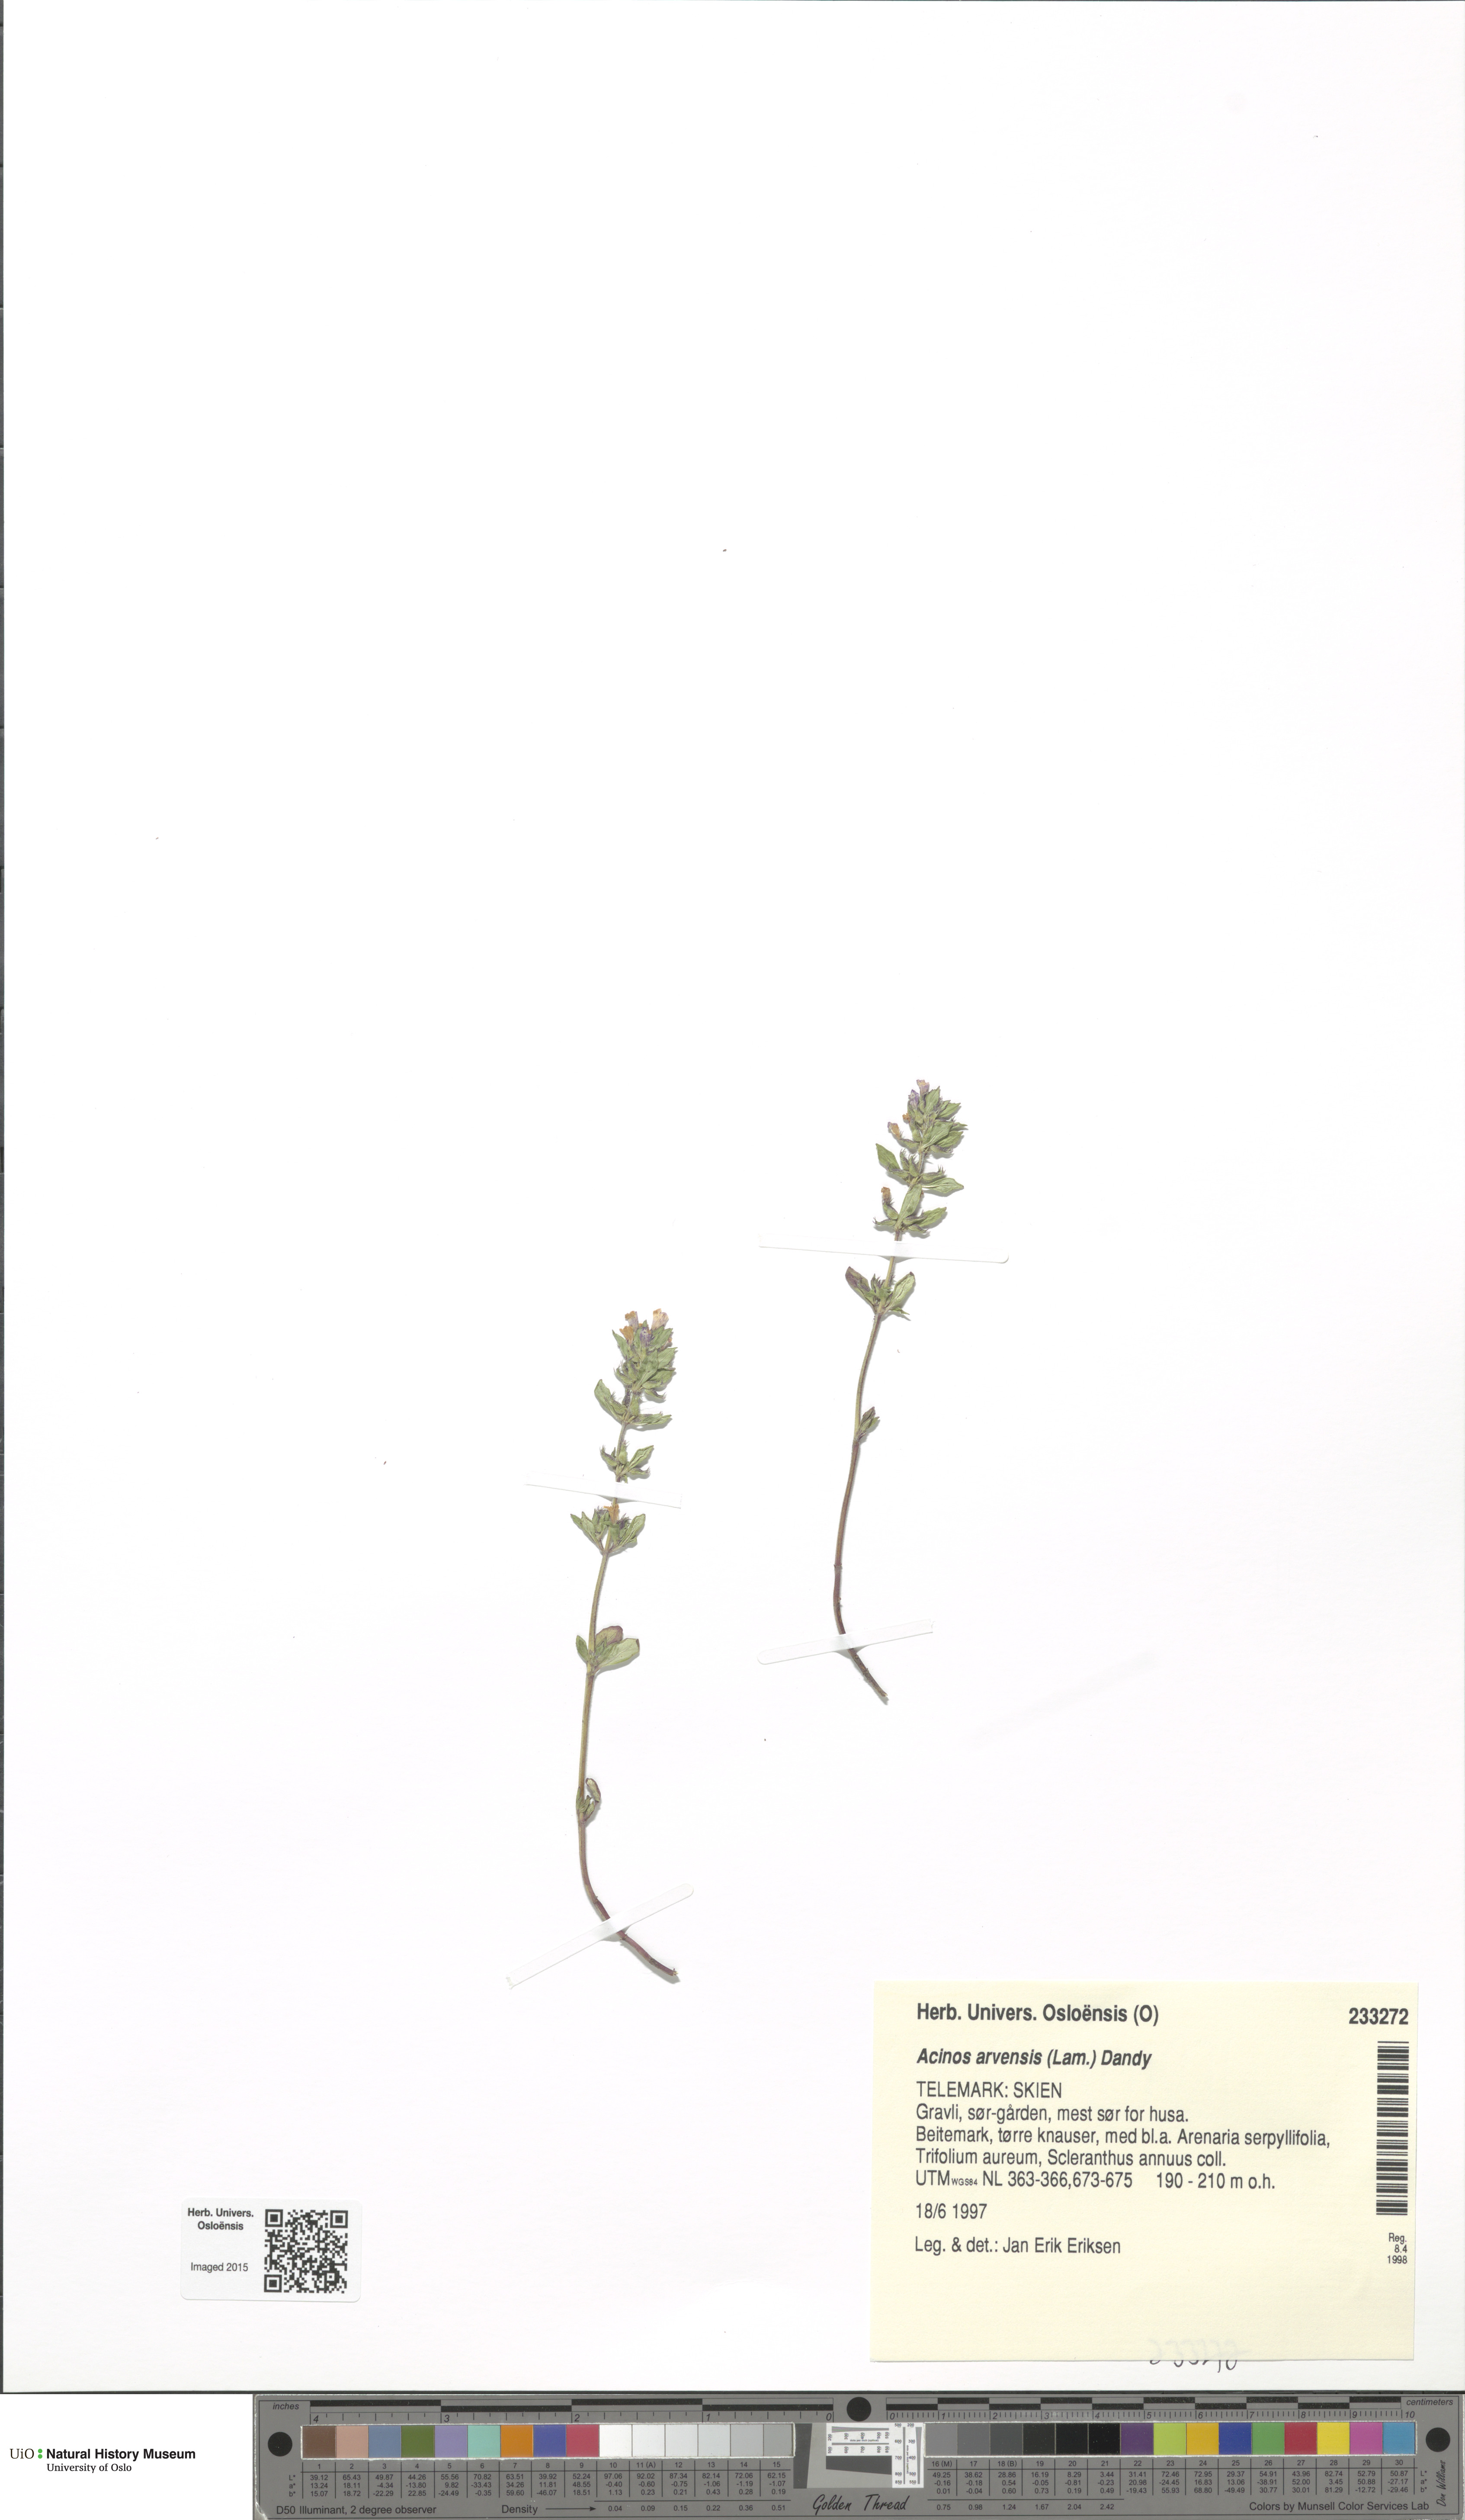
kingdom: Plantae
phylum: Tracheophyta
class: Magnoliopsida
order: Lamiales
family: Lamiaceae
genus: Clinopodium
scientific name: Clinopodium acinos
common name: Basil thyme
